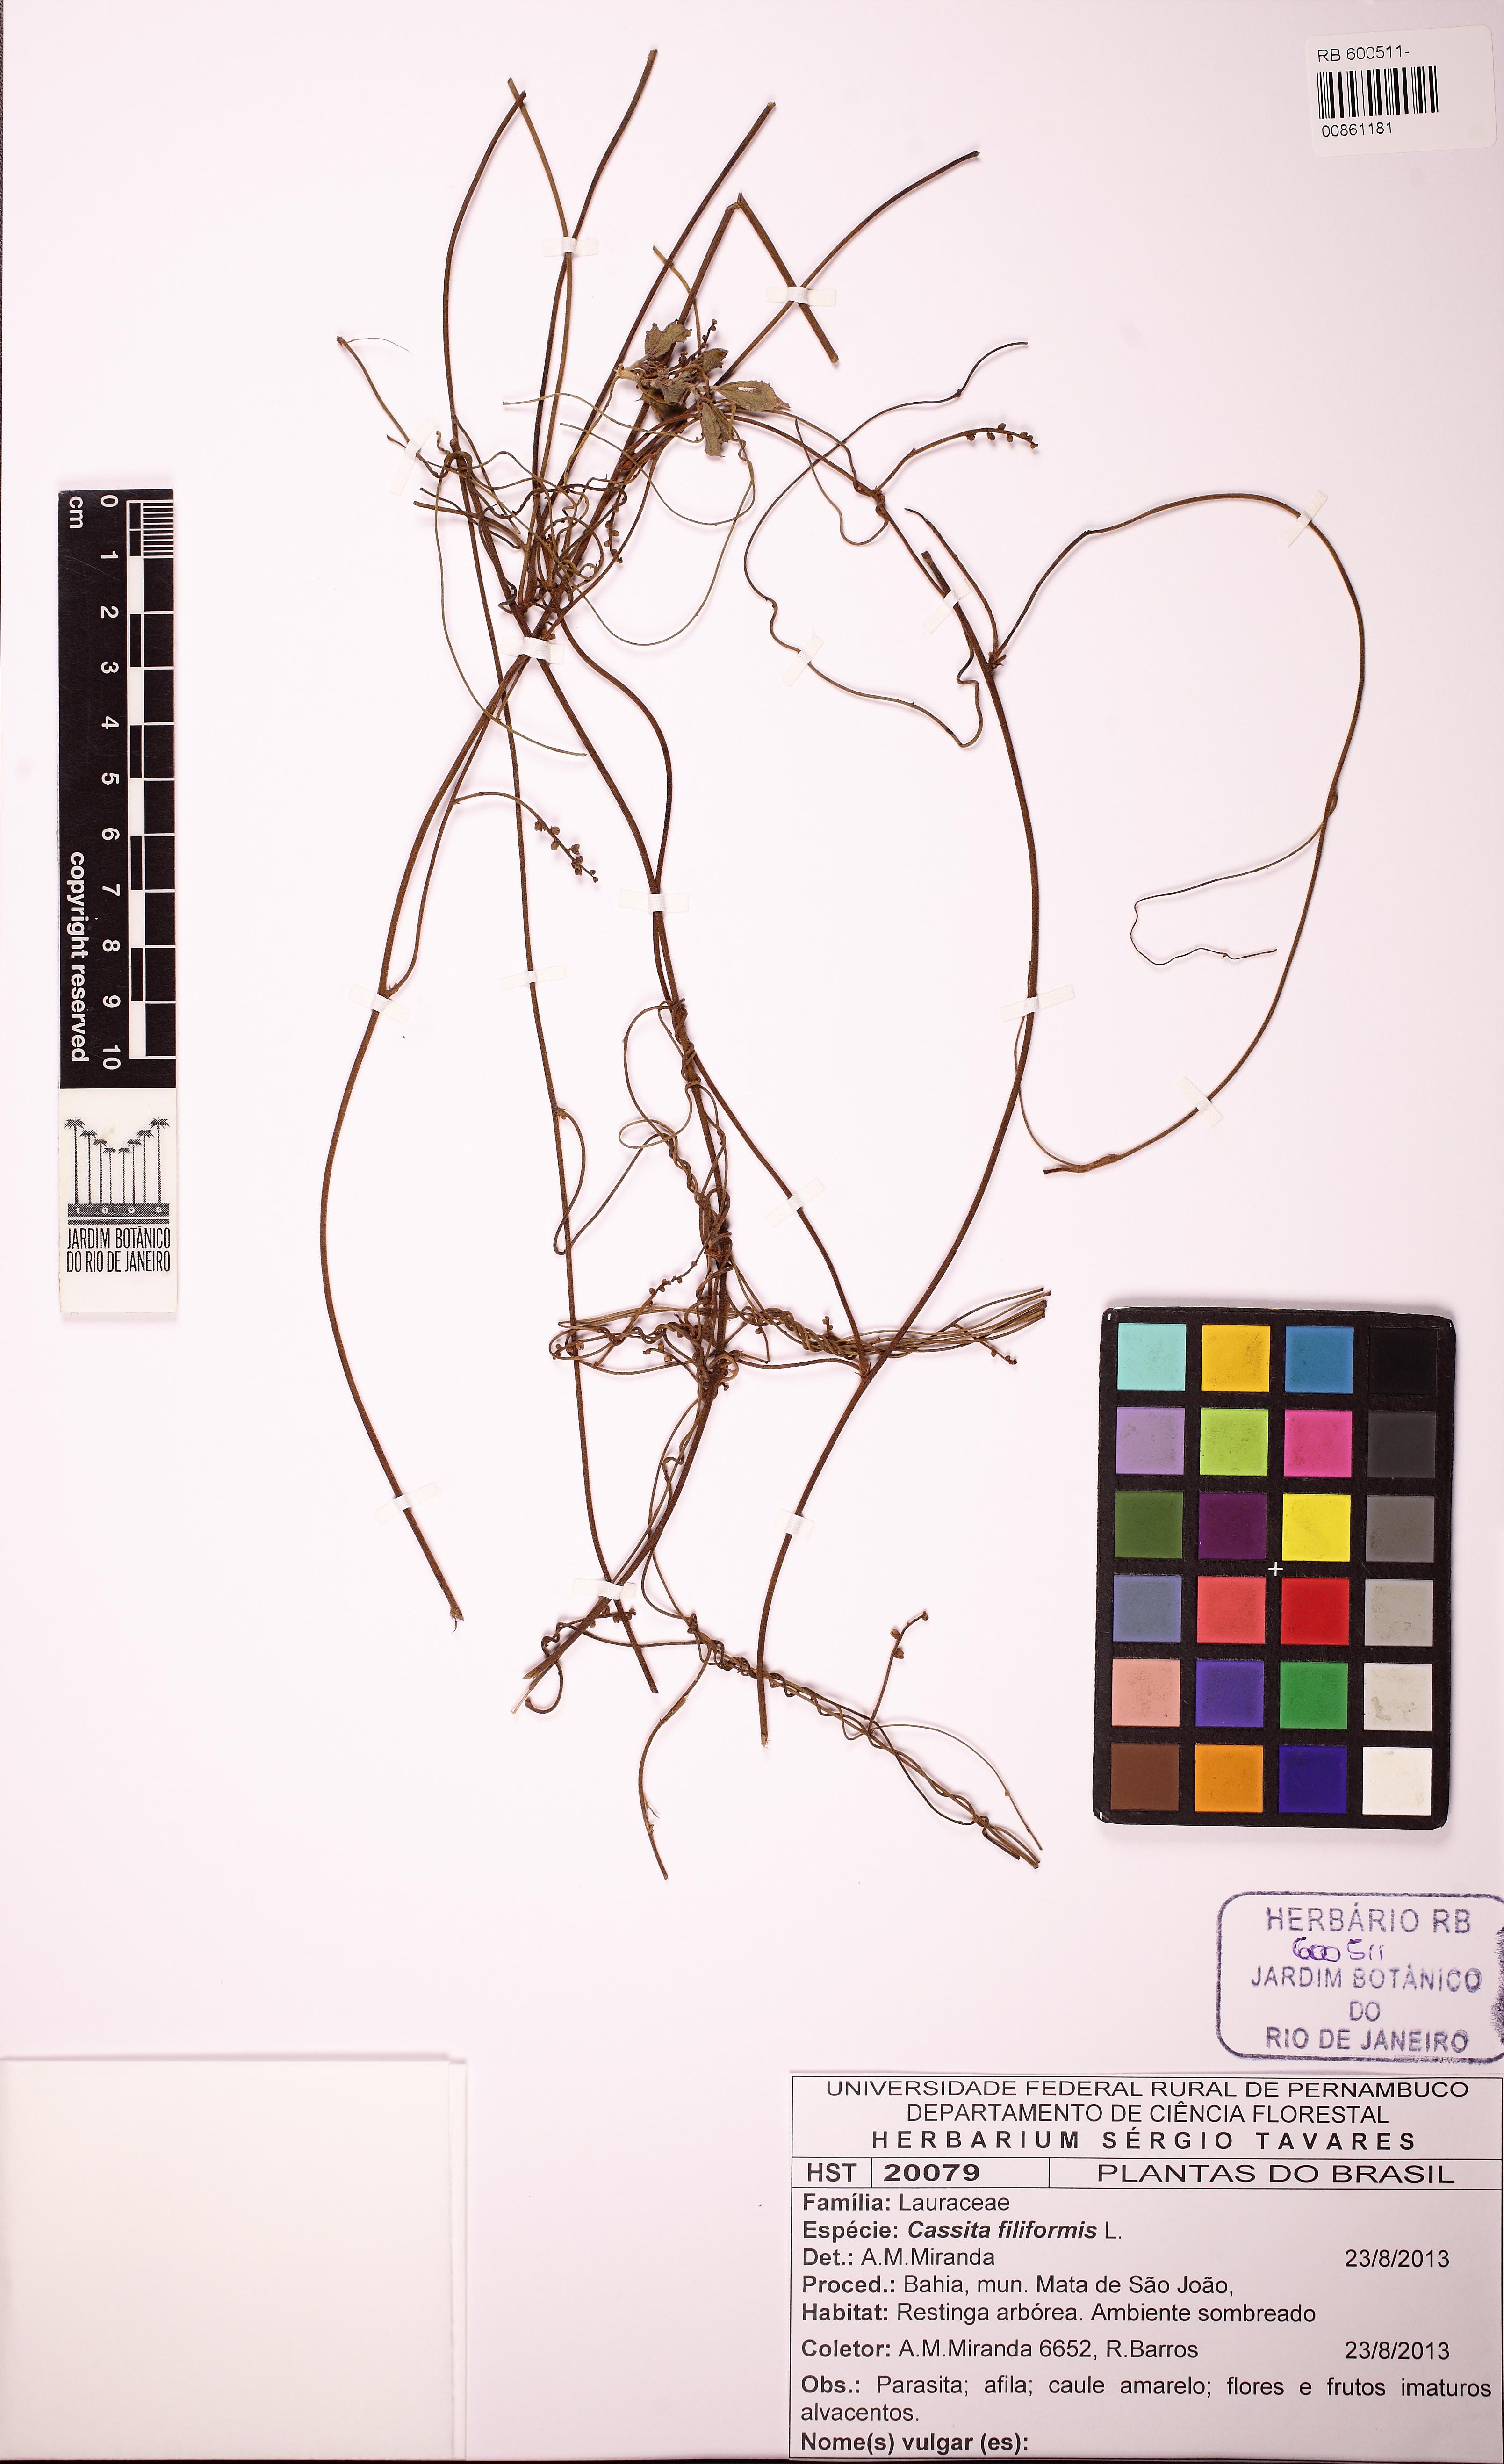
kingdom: Plantae
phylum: Tracheophyta
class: Magnoliopsida
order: Laurales
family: Lauraceae
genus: Cassytha
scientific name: Cassytha filiformis
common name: Dodder-laurel
